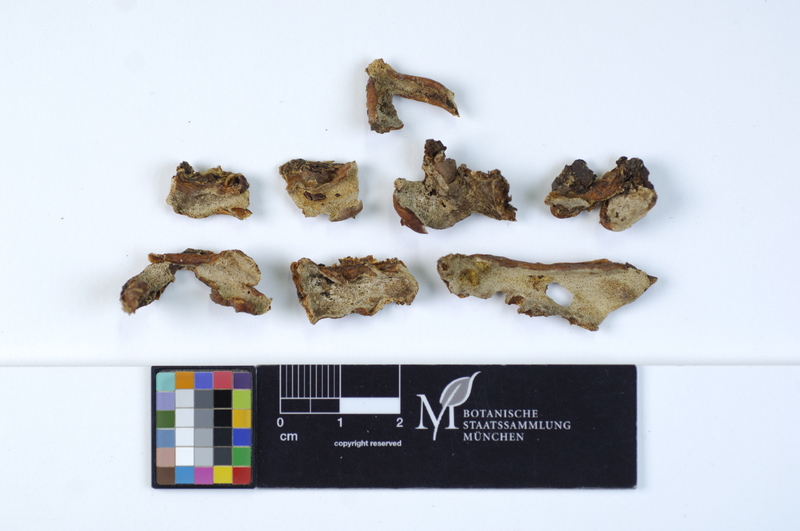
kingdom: Fungi
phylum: Basidiomycota
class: Agaricomycetes
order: Polyporales
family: Meruliaceae
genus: Physisporinus
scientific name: Physisporinus vitreus
